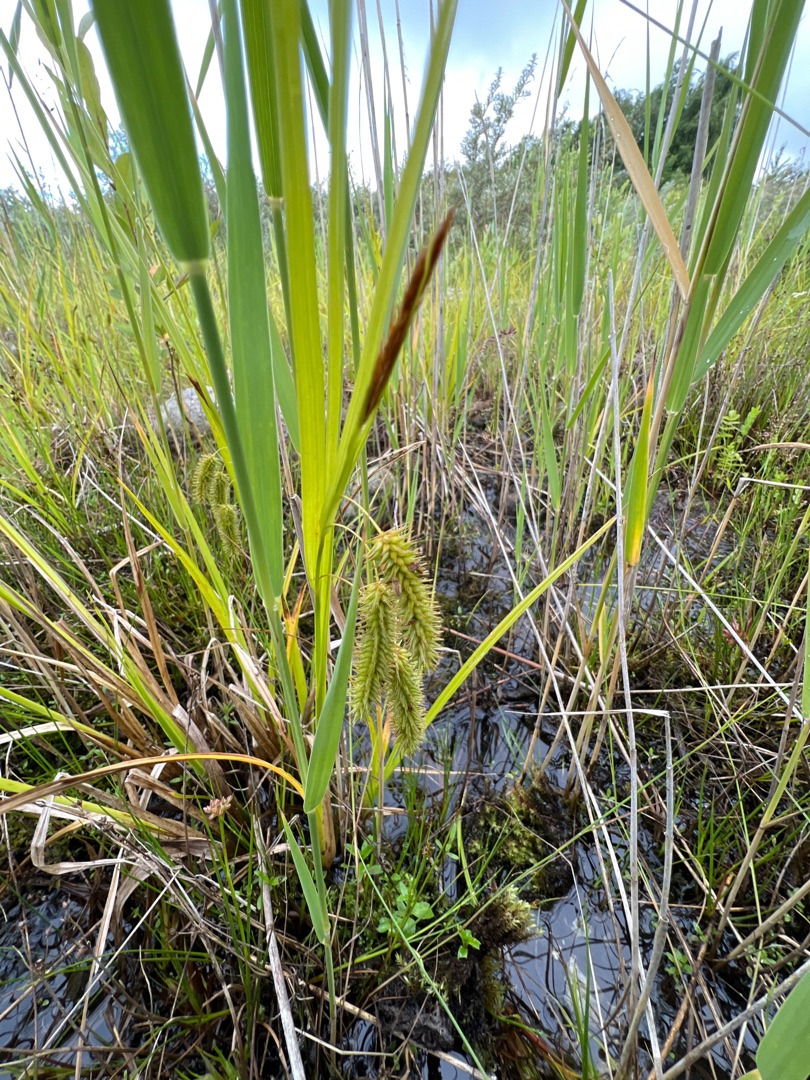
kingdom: Plantae
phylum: Tracheophyta
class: Liliopsida
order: Poales
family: Cyperaceae
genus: Carex
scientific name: Carex pseudocyperus
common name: Knippe-star
